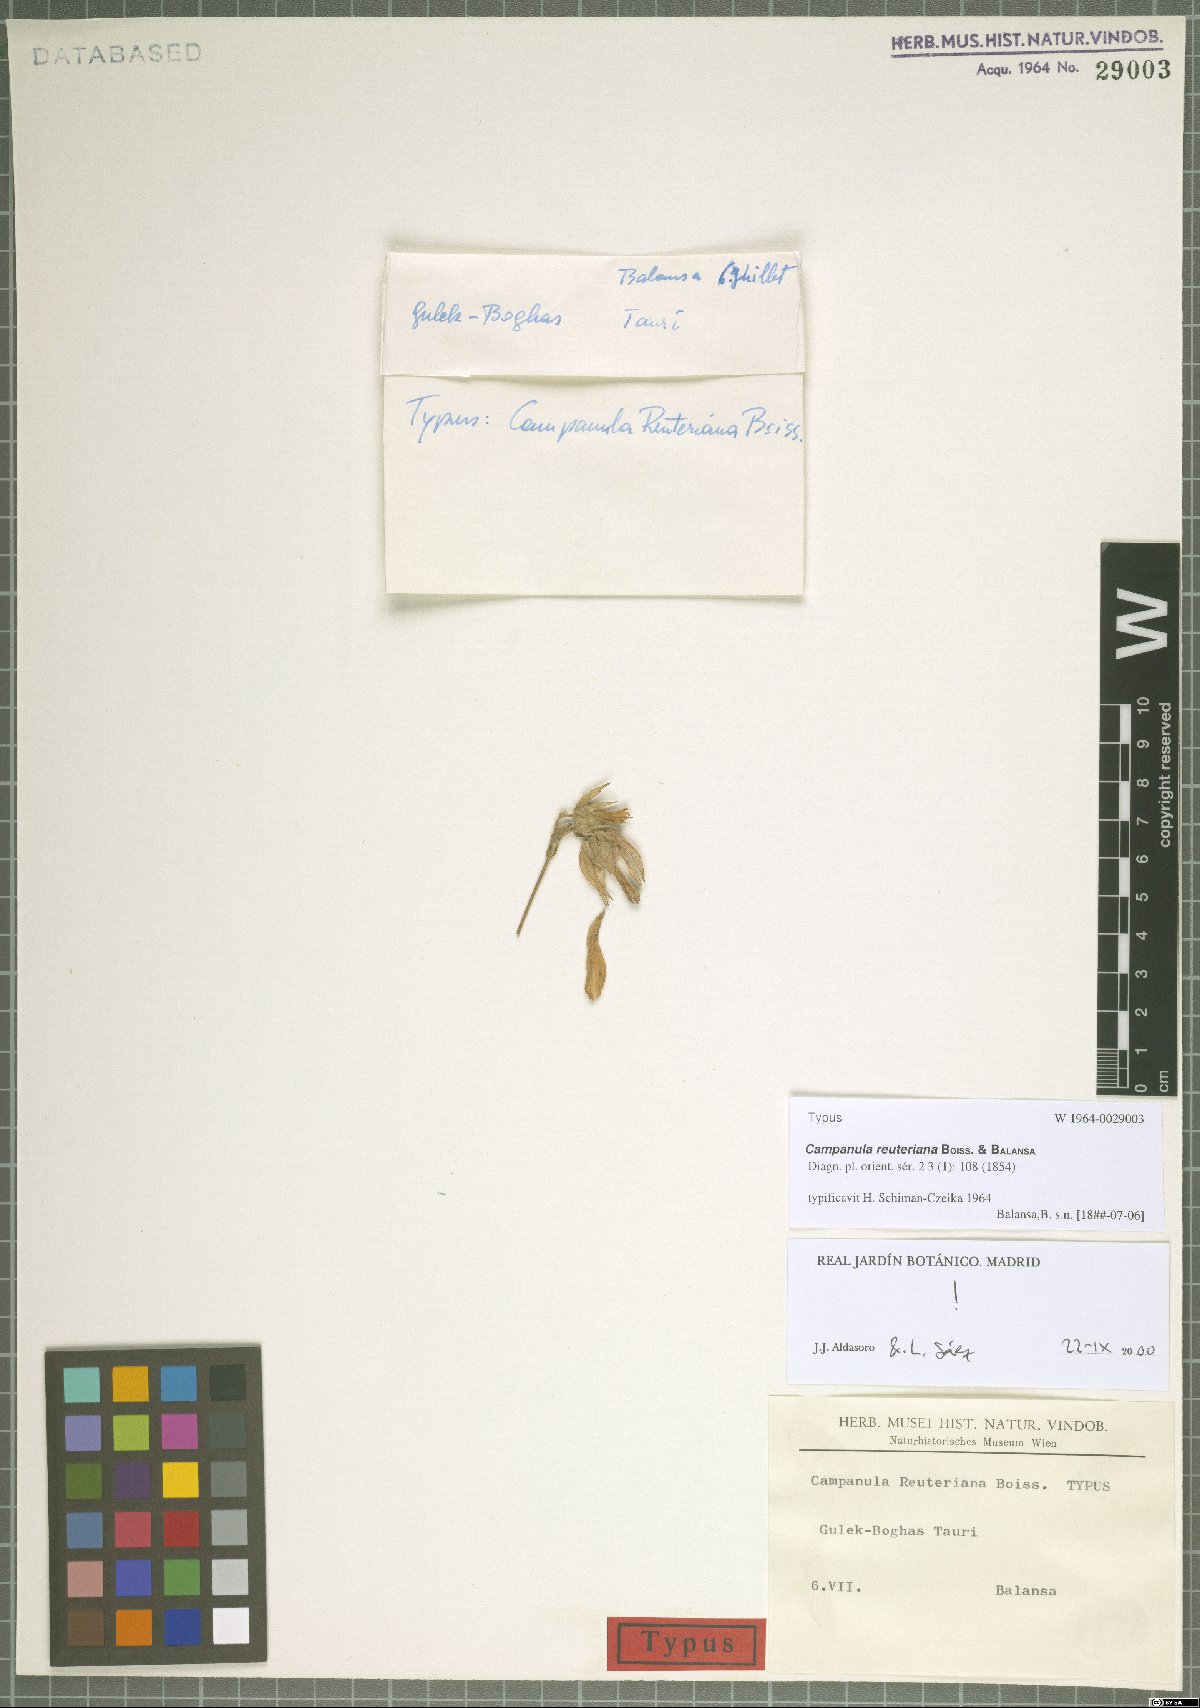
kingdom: Plantae
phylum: Tracheophyta
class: Magnoliopsida
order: Asterales
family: Campanulaceae
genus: Campanula
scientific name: Campanula reuteriana
